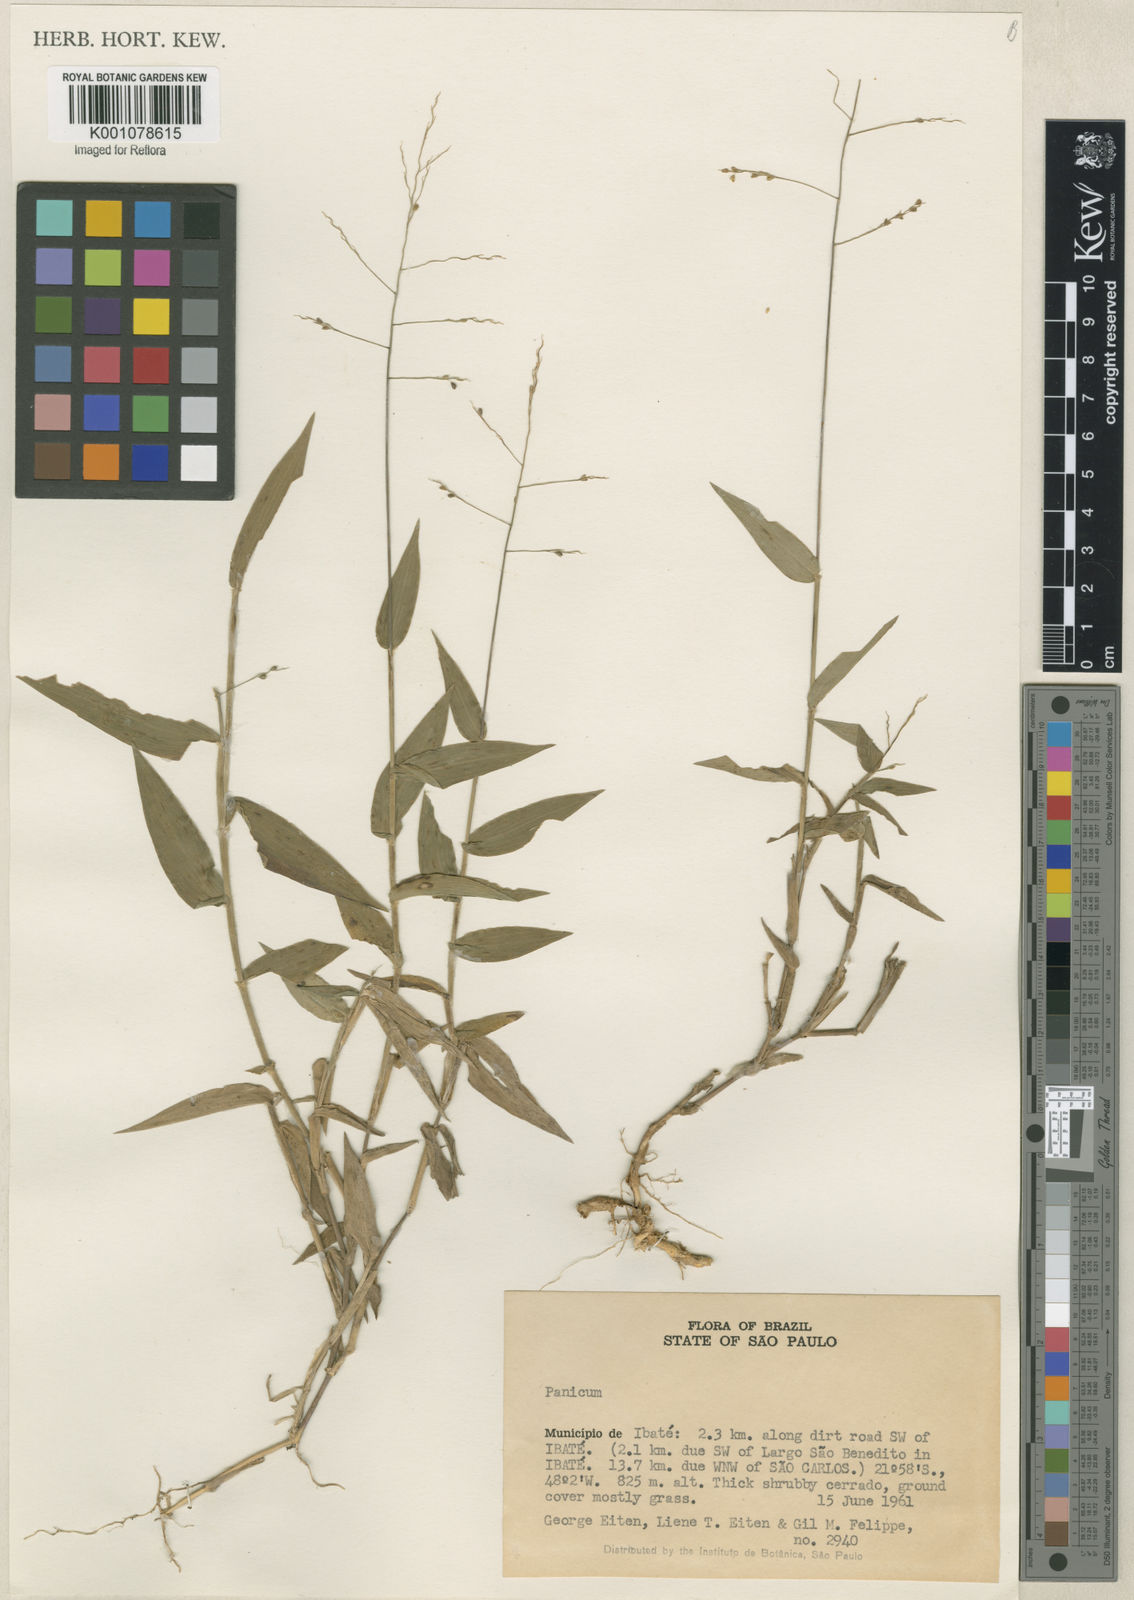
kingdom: Plantae
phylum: Tracheophyta
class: Liliopsida
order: Poales
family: Poaceae
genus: Panicum
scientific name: Panicum sellowii
